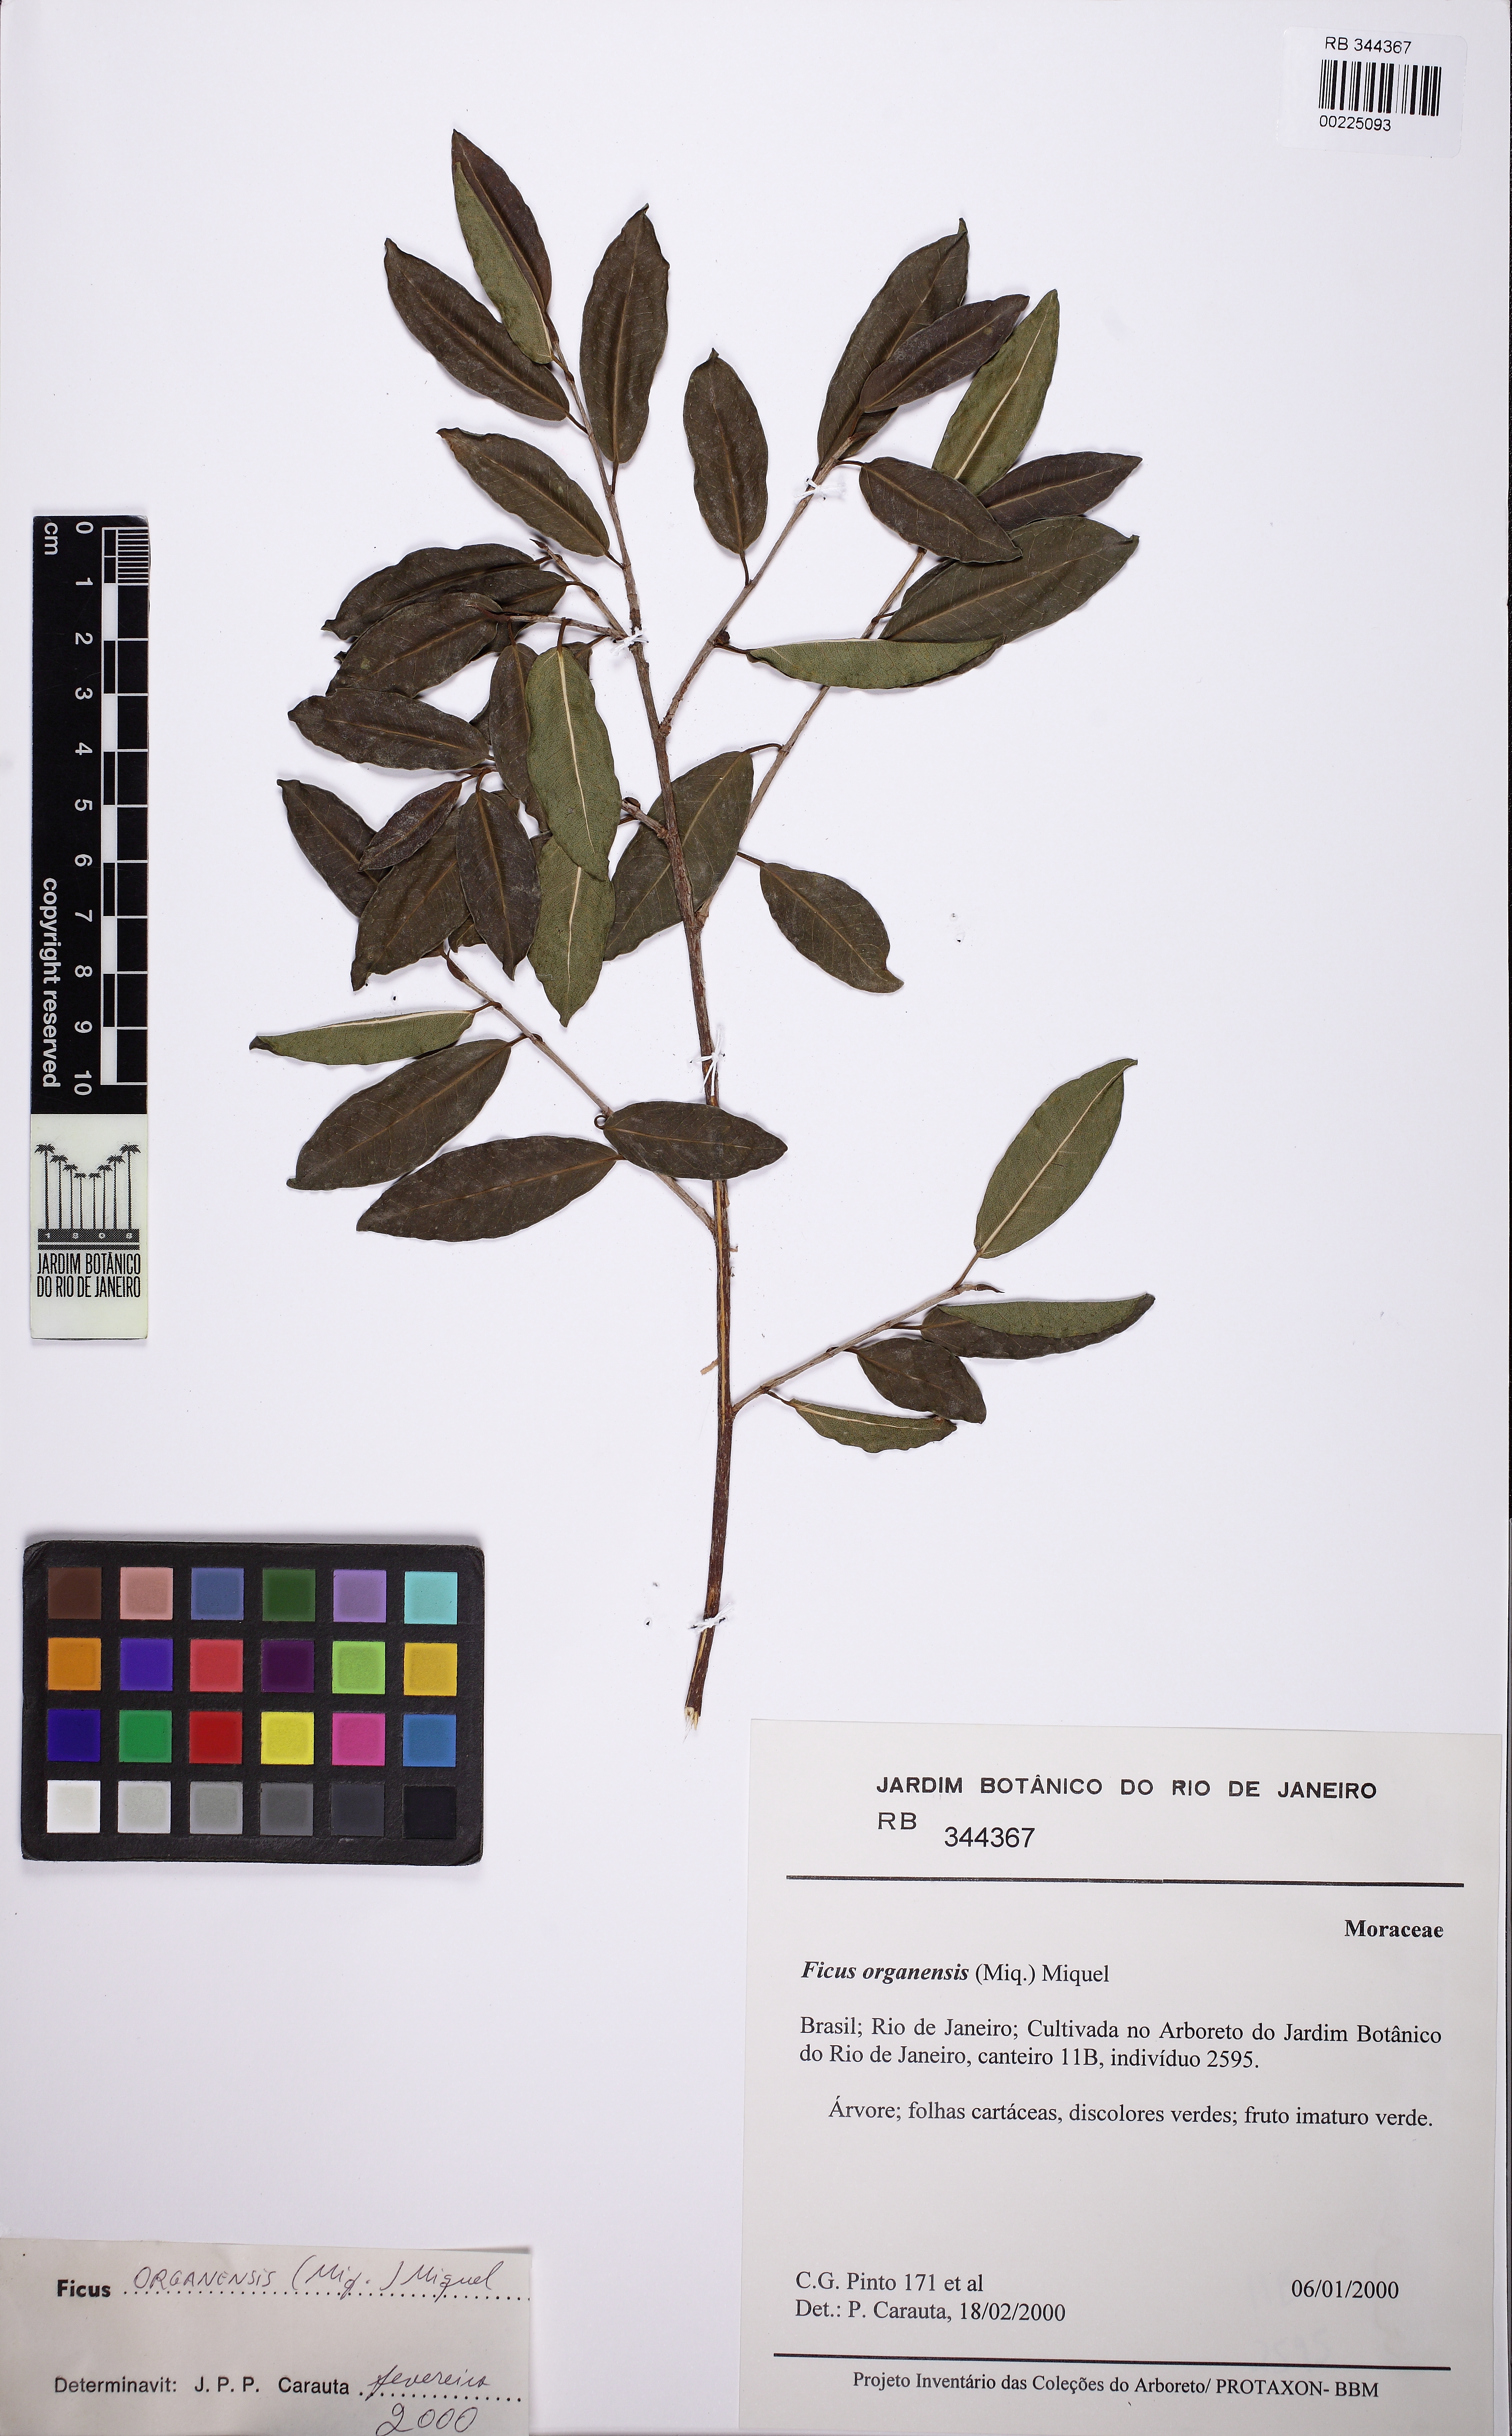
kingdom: Plantae
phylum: Tracheophyta
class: Magnoliopsida
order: Rosales
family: Moraceae
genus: Ficus
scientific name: Ficus organensis
